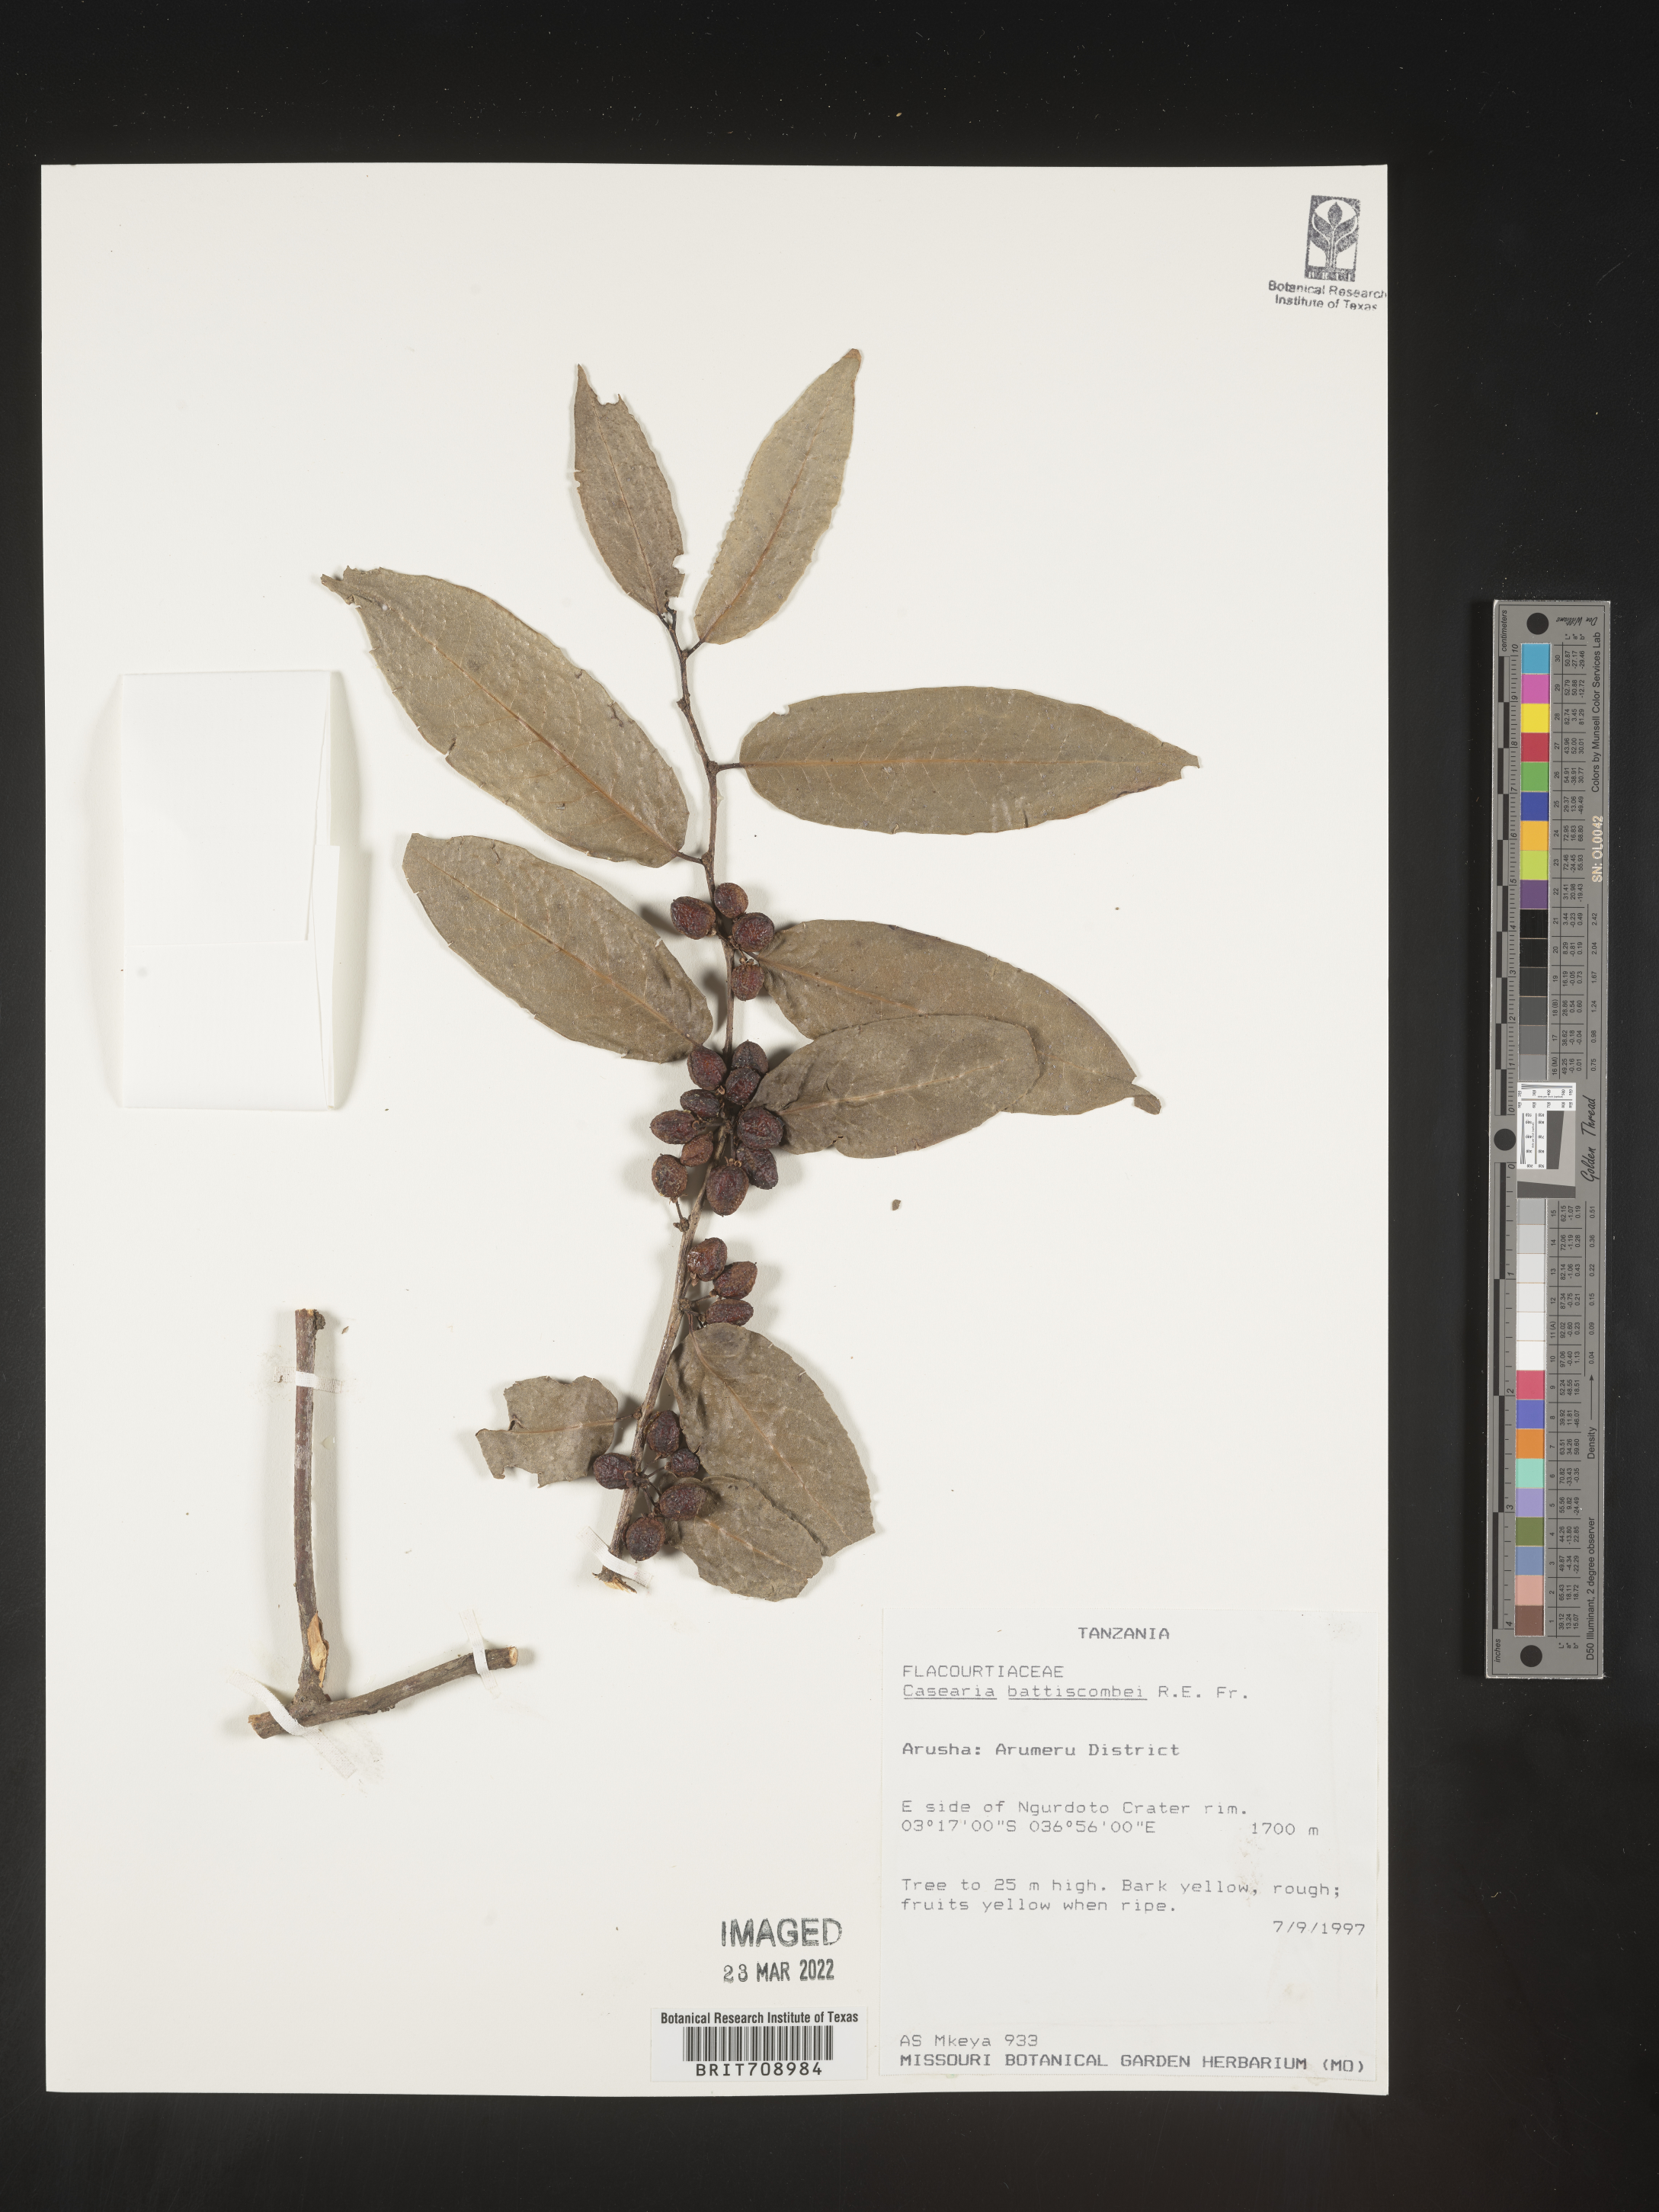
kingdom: Plantae
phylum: Tracheophyta
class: Magnoliopsida
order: Malpighiales
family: Salicaceae
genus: Casearia
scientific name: Casearia
